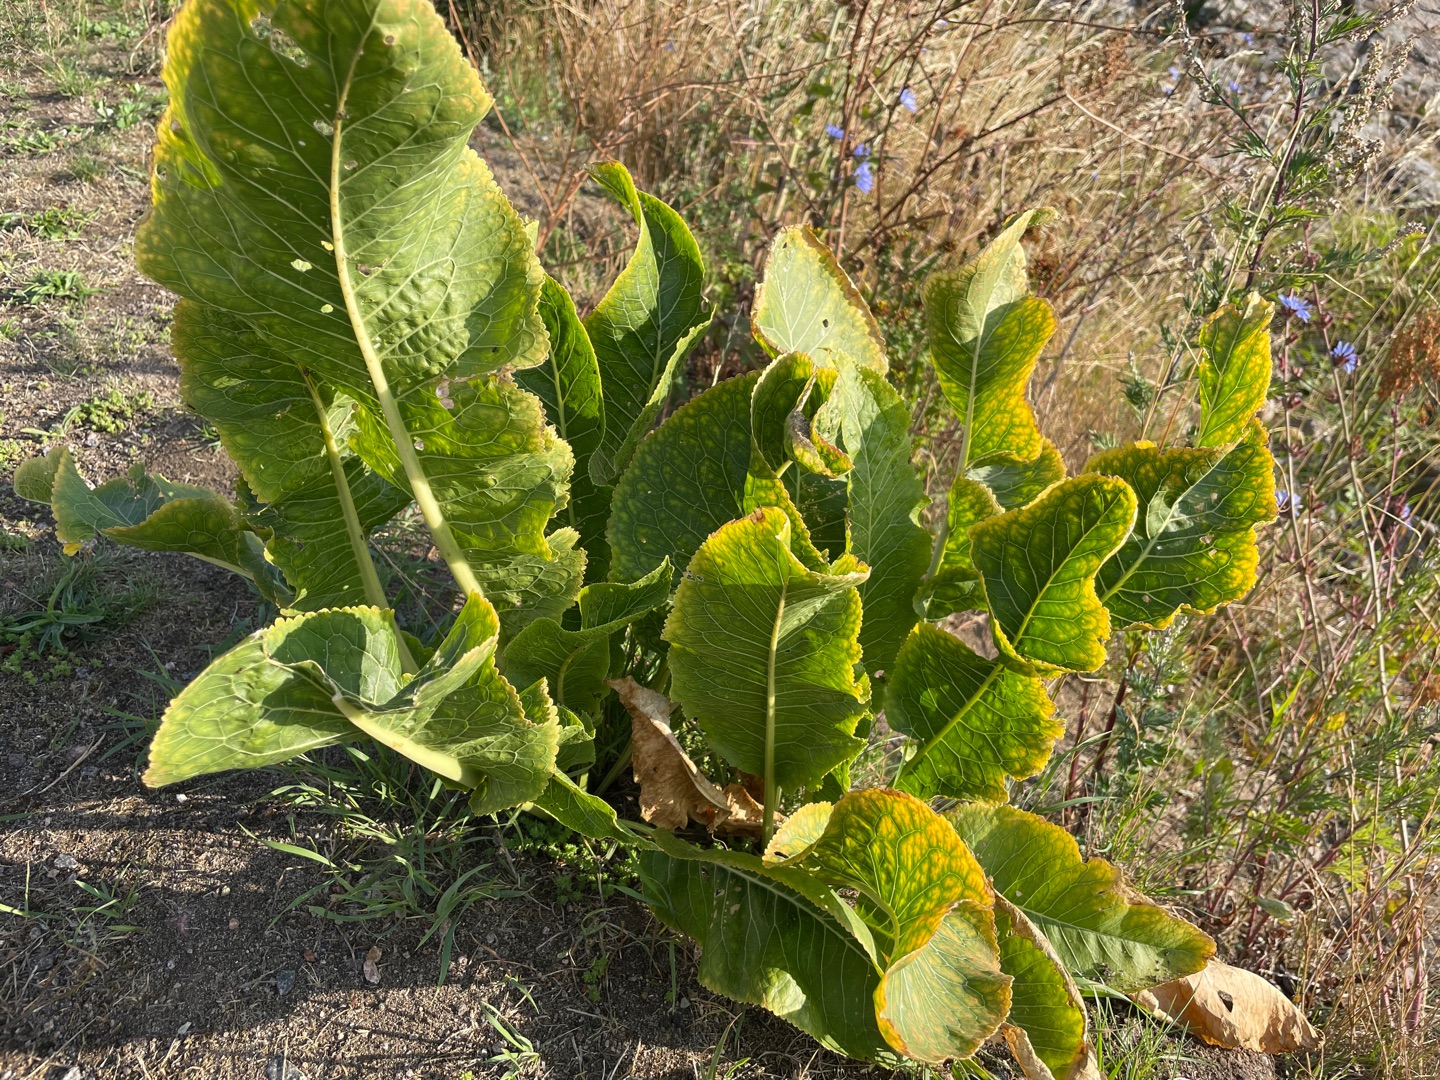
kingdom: Plantae
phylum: Tracheophyta
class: Magnoliopsida
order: Brassicales
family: Brassicaceae
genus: Armoracia
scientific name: Armoracia rusticana
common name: Peberrod
